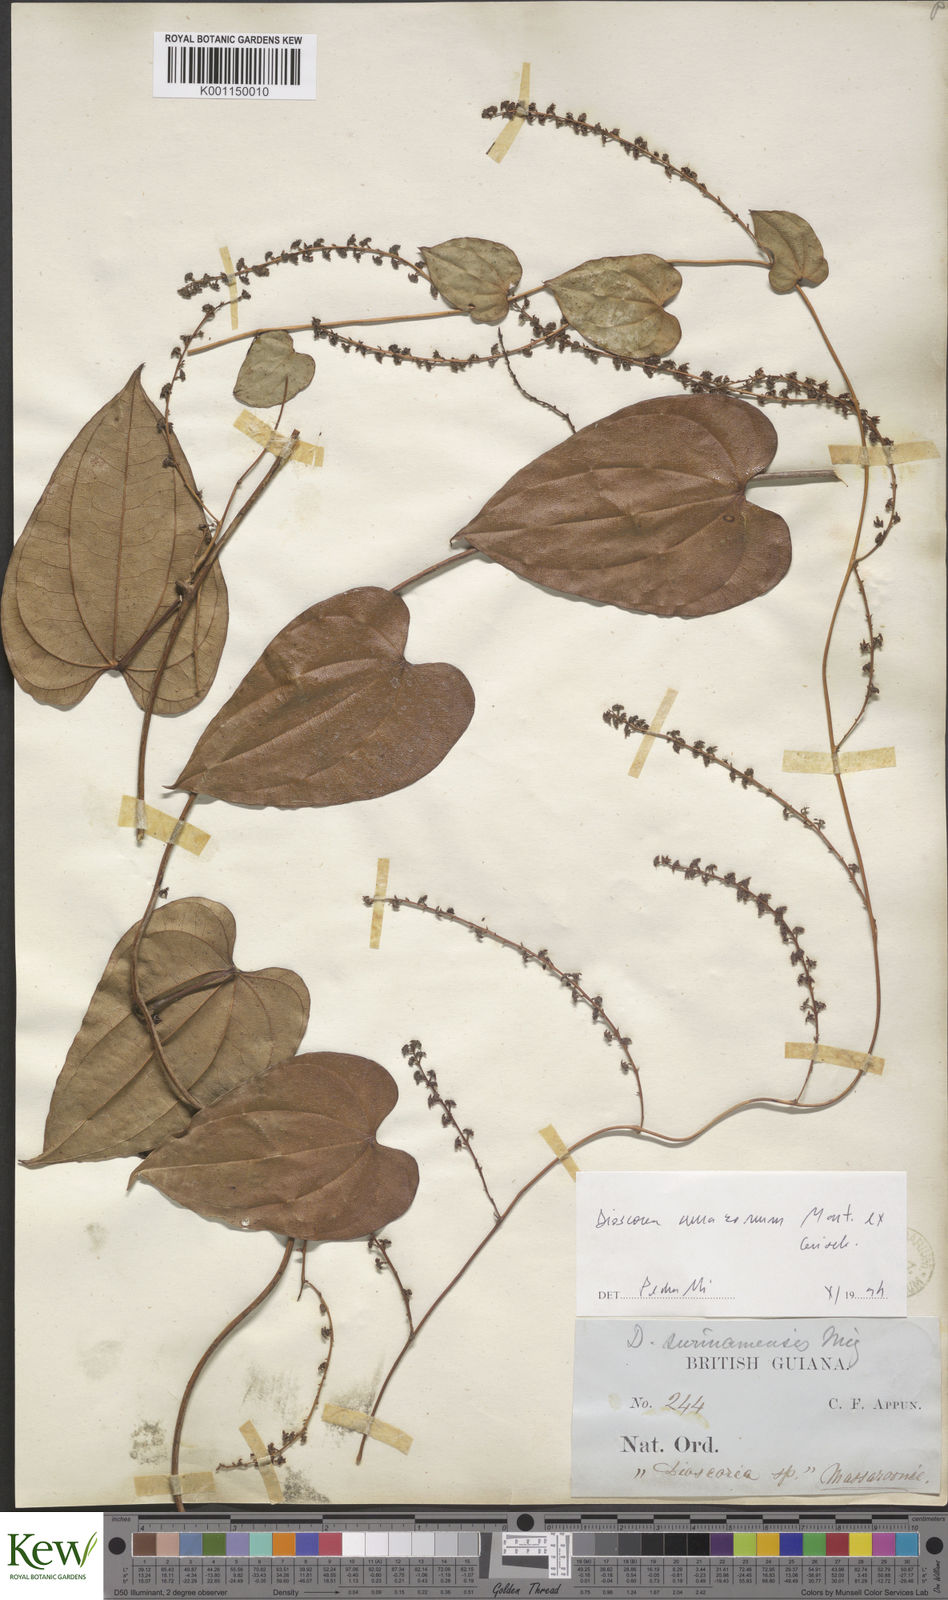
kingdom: Plantae
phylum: Tracheophyta
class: Liliopsida
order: Dioscoreales
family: Dioscoreaceae
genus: Dioscorea
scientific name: Dioscorea amazonum
